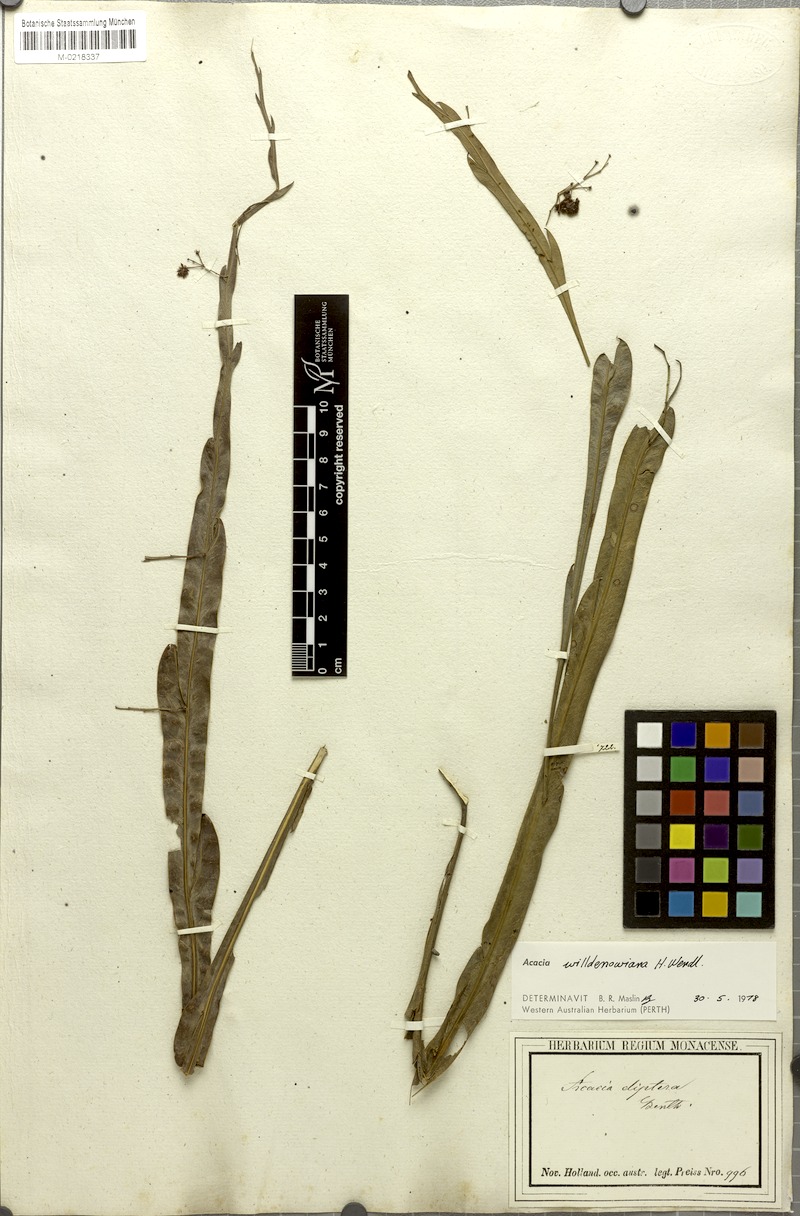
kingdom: Plantae
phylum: Tracheophyta
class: Magnoliopsida
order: Fabales
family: Fabaceae
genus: Acacia
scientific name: Acacia applanata
